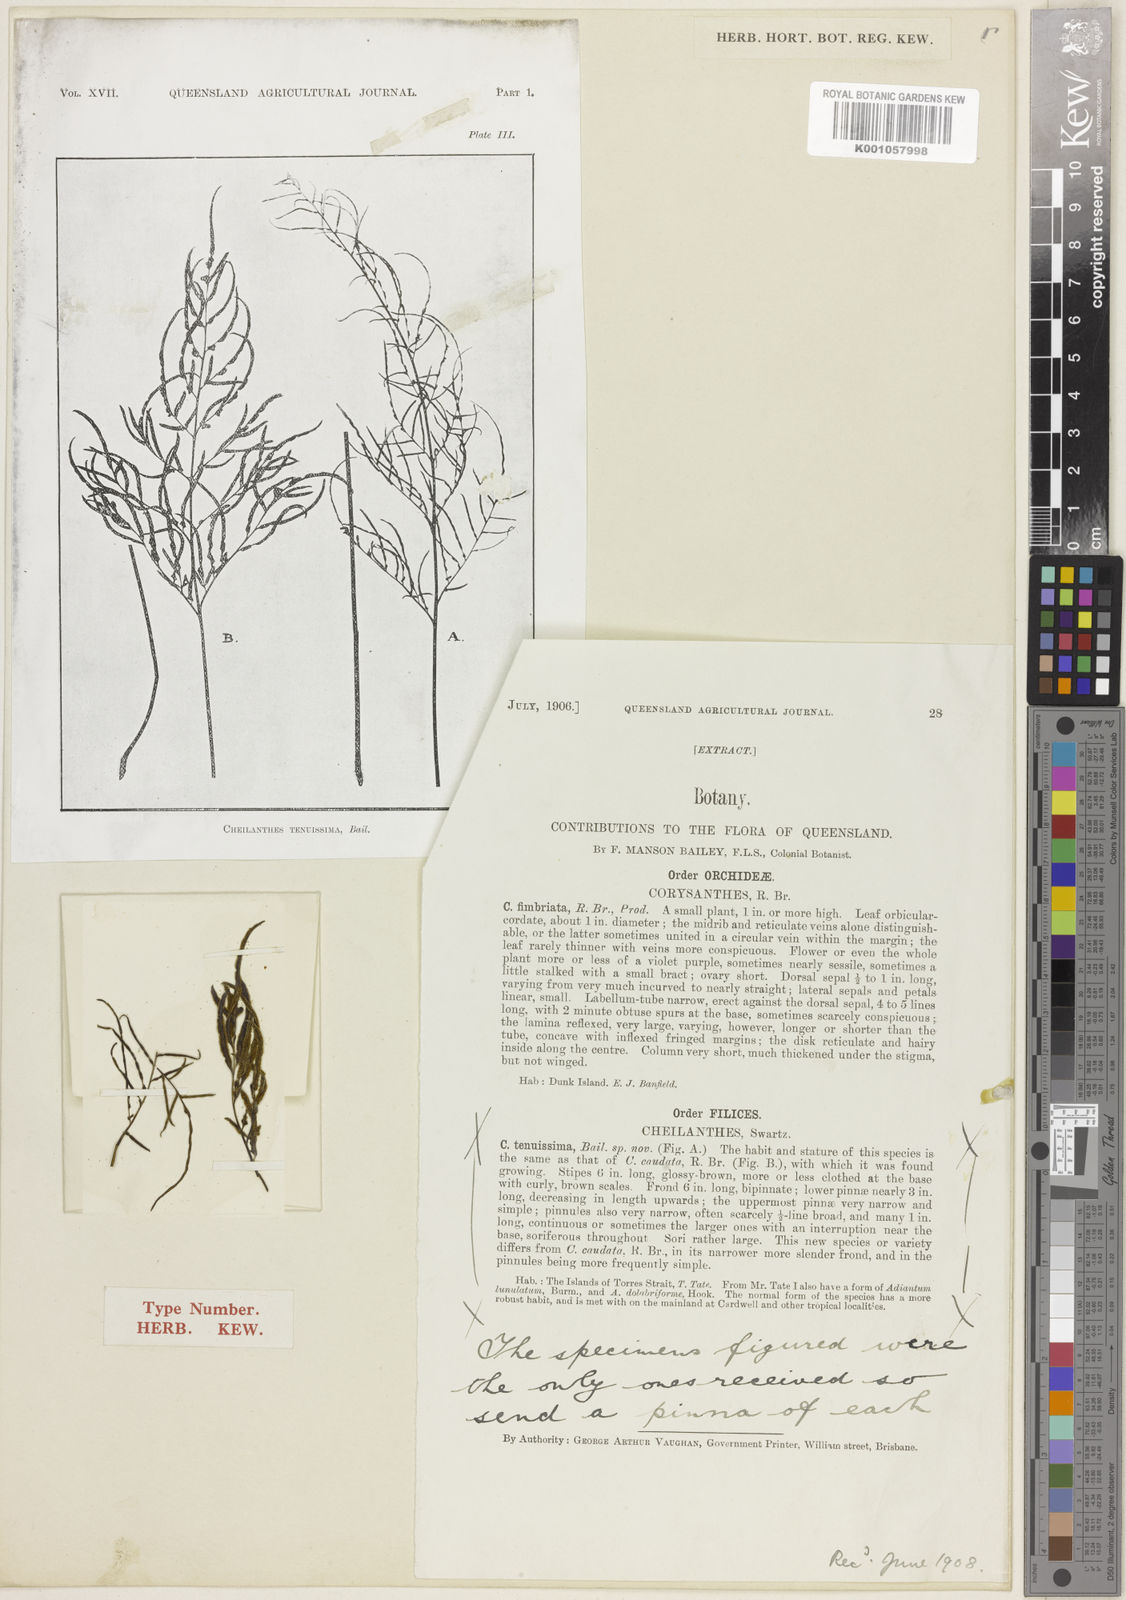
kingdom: Plantae
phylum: Tracheophyta
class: Polypodiopsida
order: Polypodiales
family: Pteridaceae
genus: Cheilanthes
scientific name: Cheilanthes nitida
